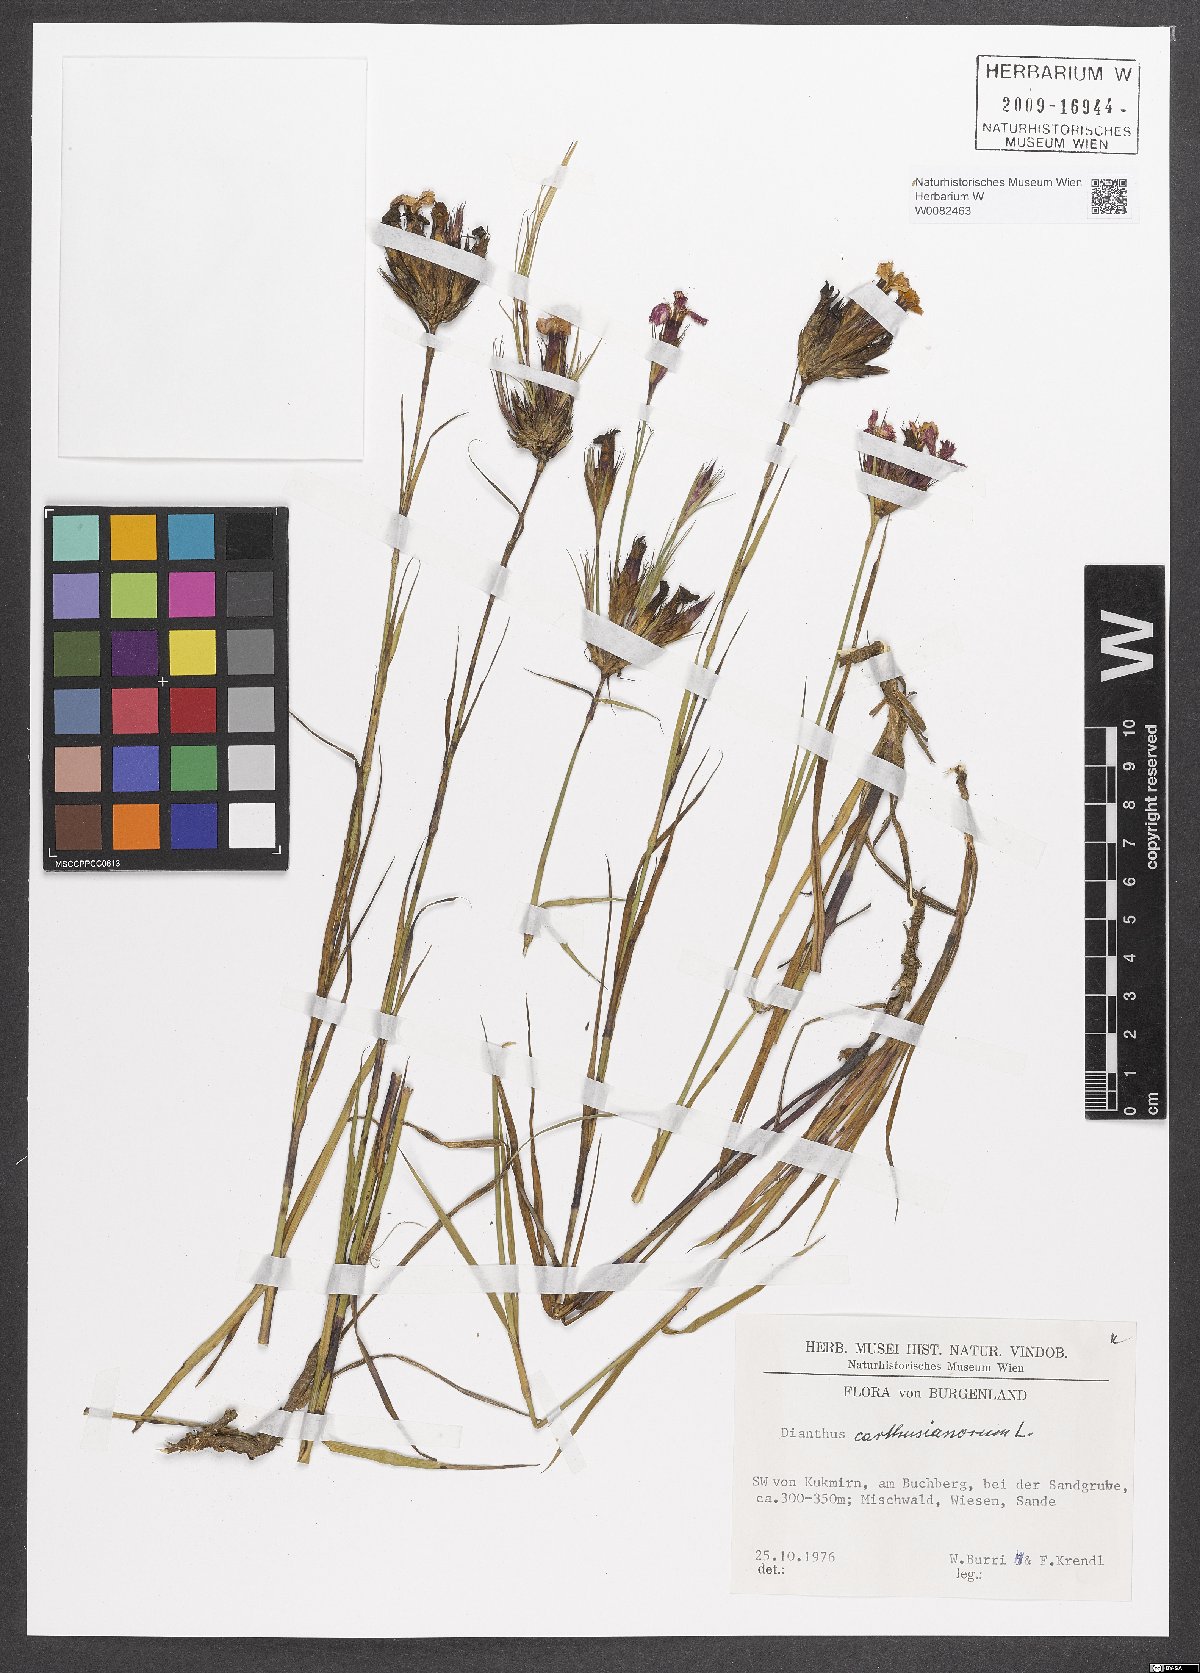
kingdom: Plantae
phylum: Tracheophyta
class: Magnoliopsida
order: Caryophyllales
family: Caryophyllaceae
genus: Dianthus
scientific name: Dianthus carthusianorum
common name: Carthusian pink
